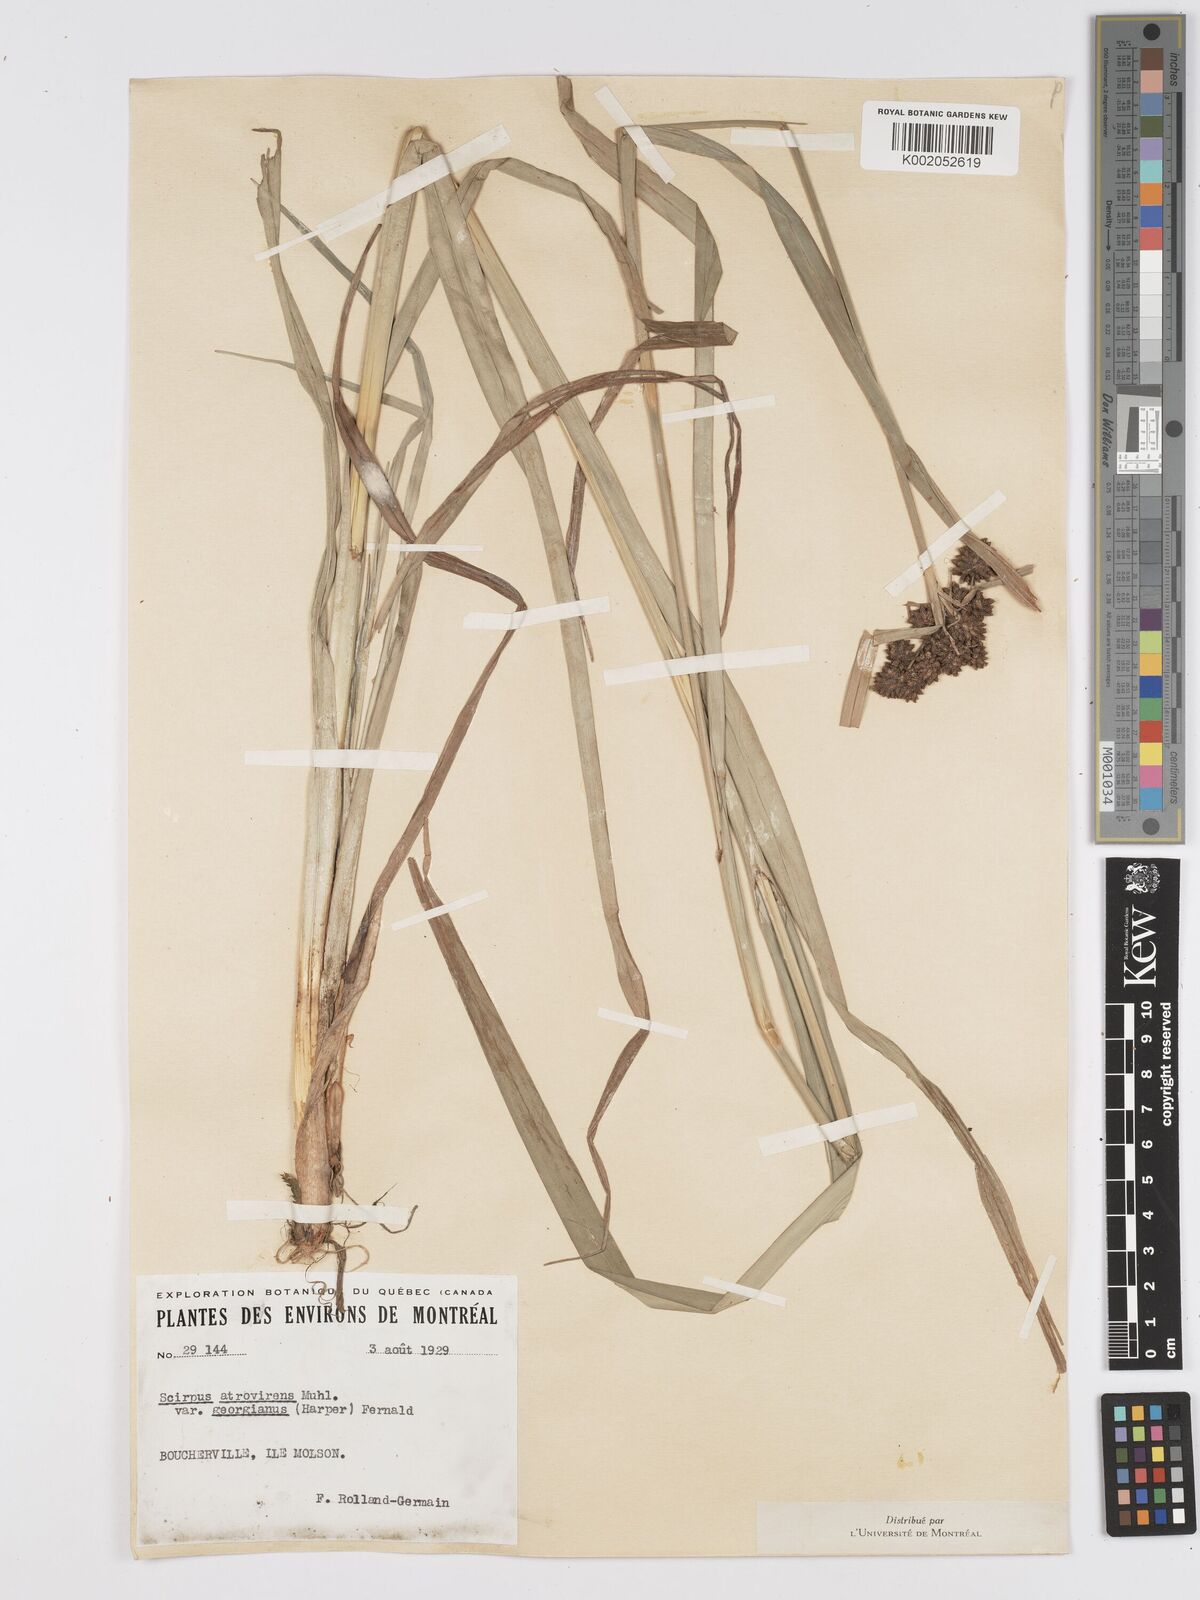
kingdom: Plantae
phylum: Tracheophyta
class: Liliopsida
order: Poales
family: Cyperaceae
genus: Scirpus
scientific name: Scirpus atrovirens
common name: Black bulrush
